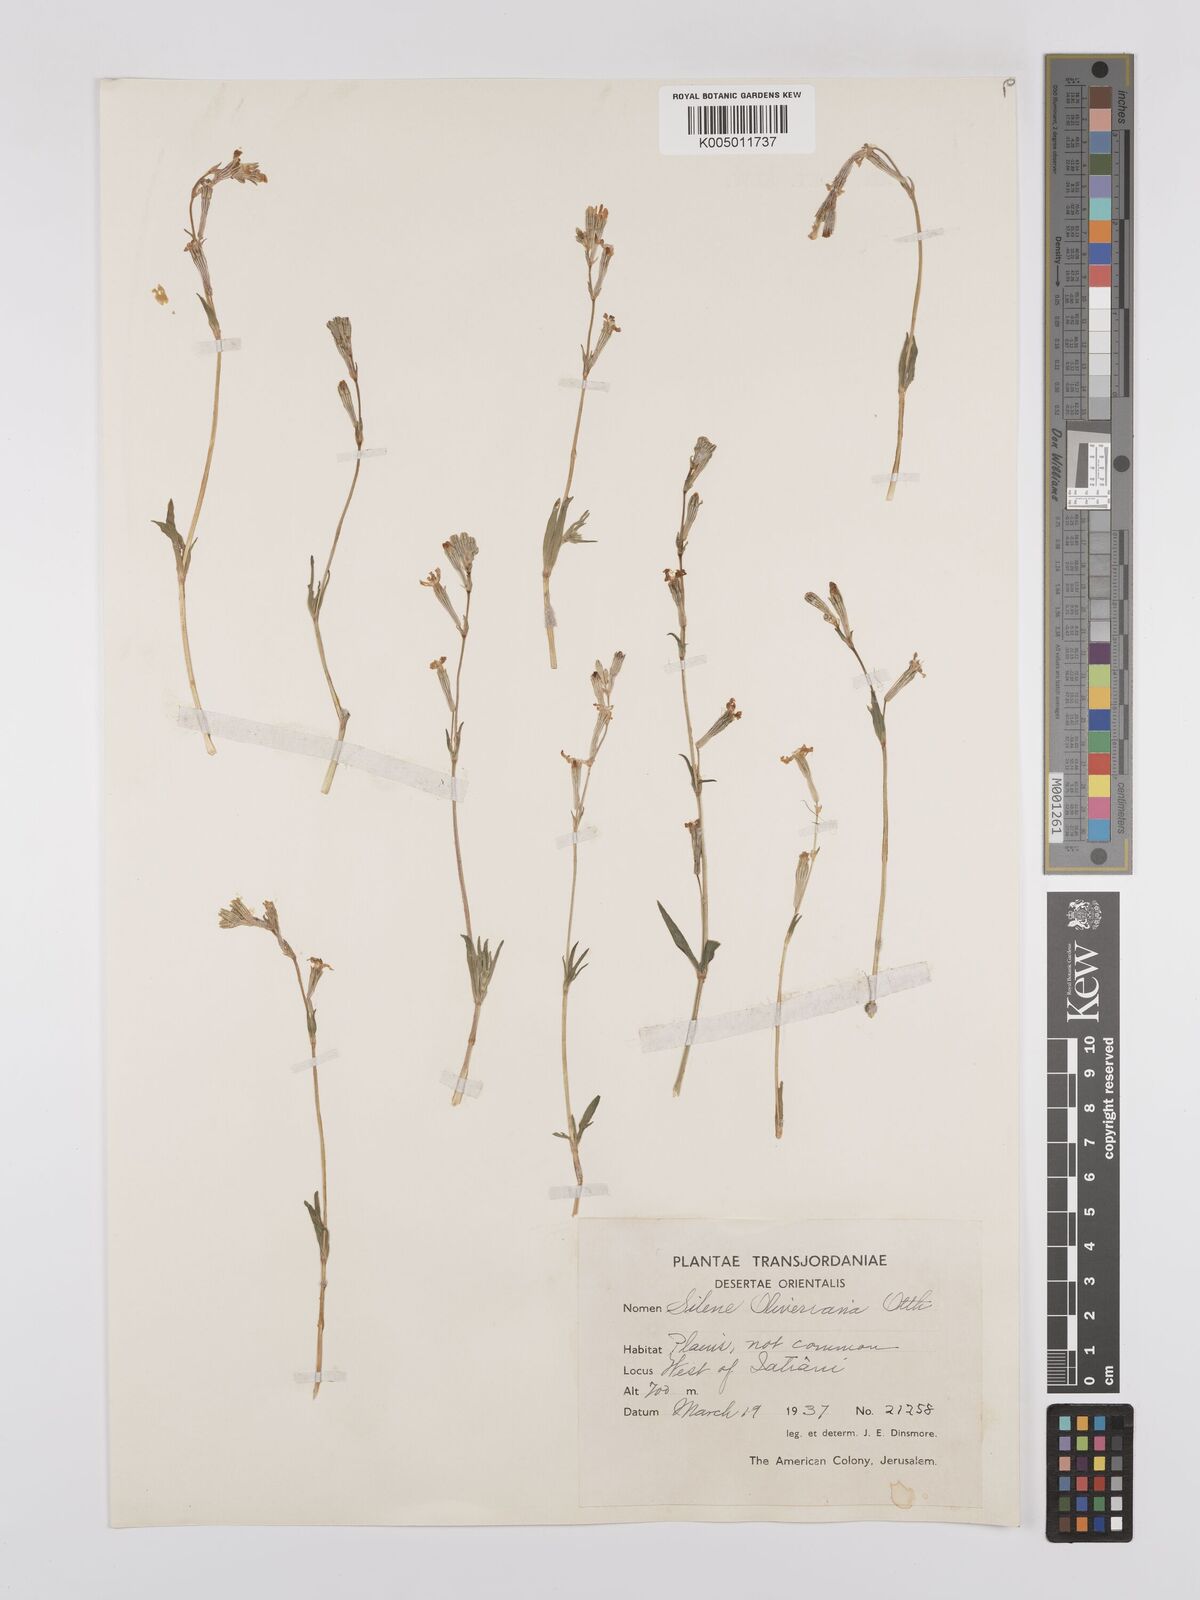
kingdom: Plantae
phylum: Tracheophyta
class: Magnoliopsida
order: Caryophyllales
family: Caryophyllaceae
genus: Silene
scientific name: Silene oliveriana
